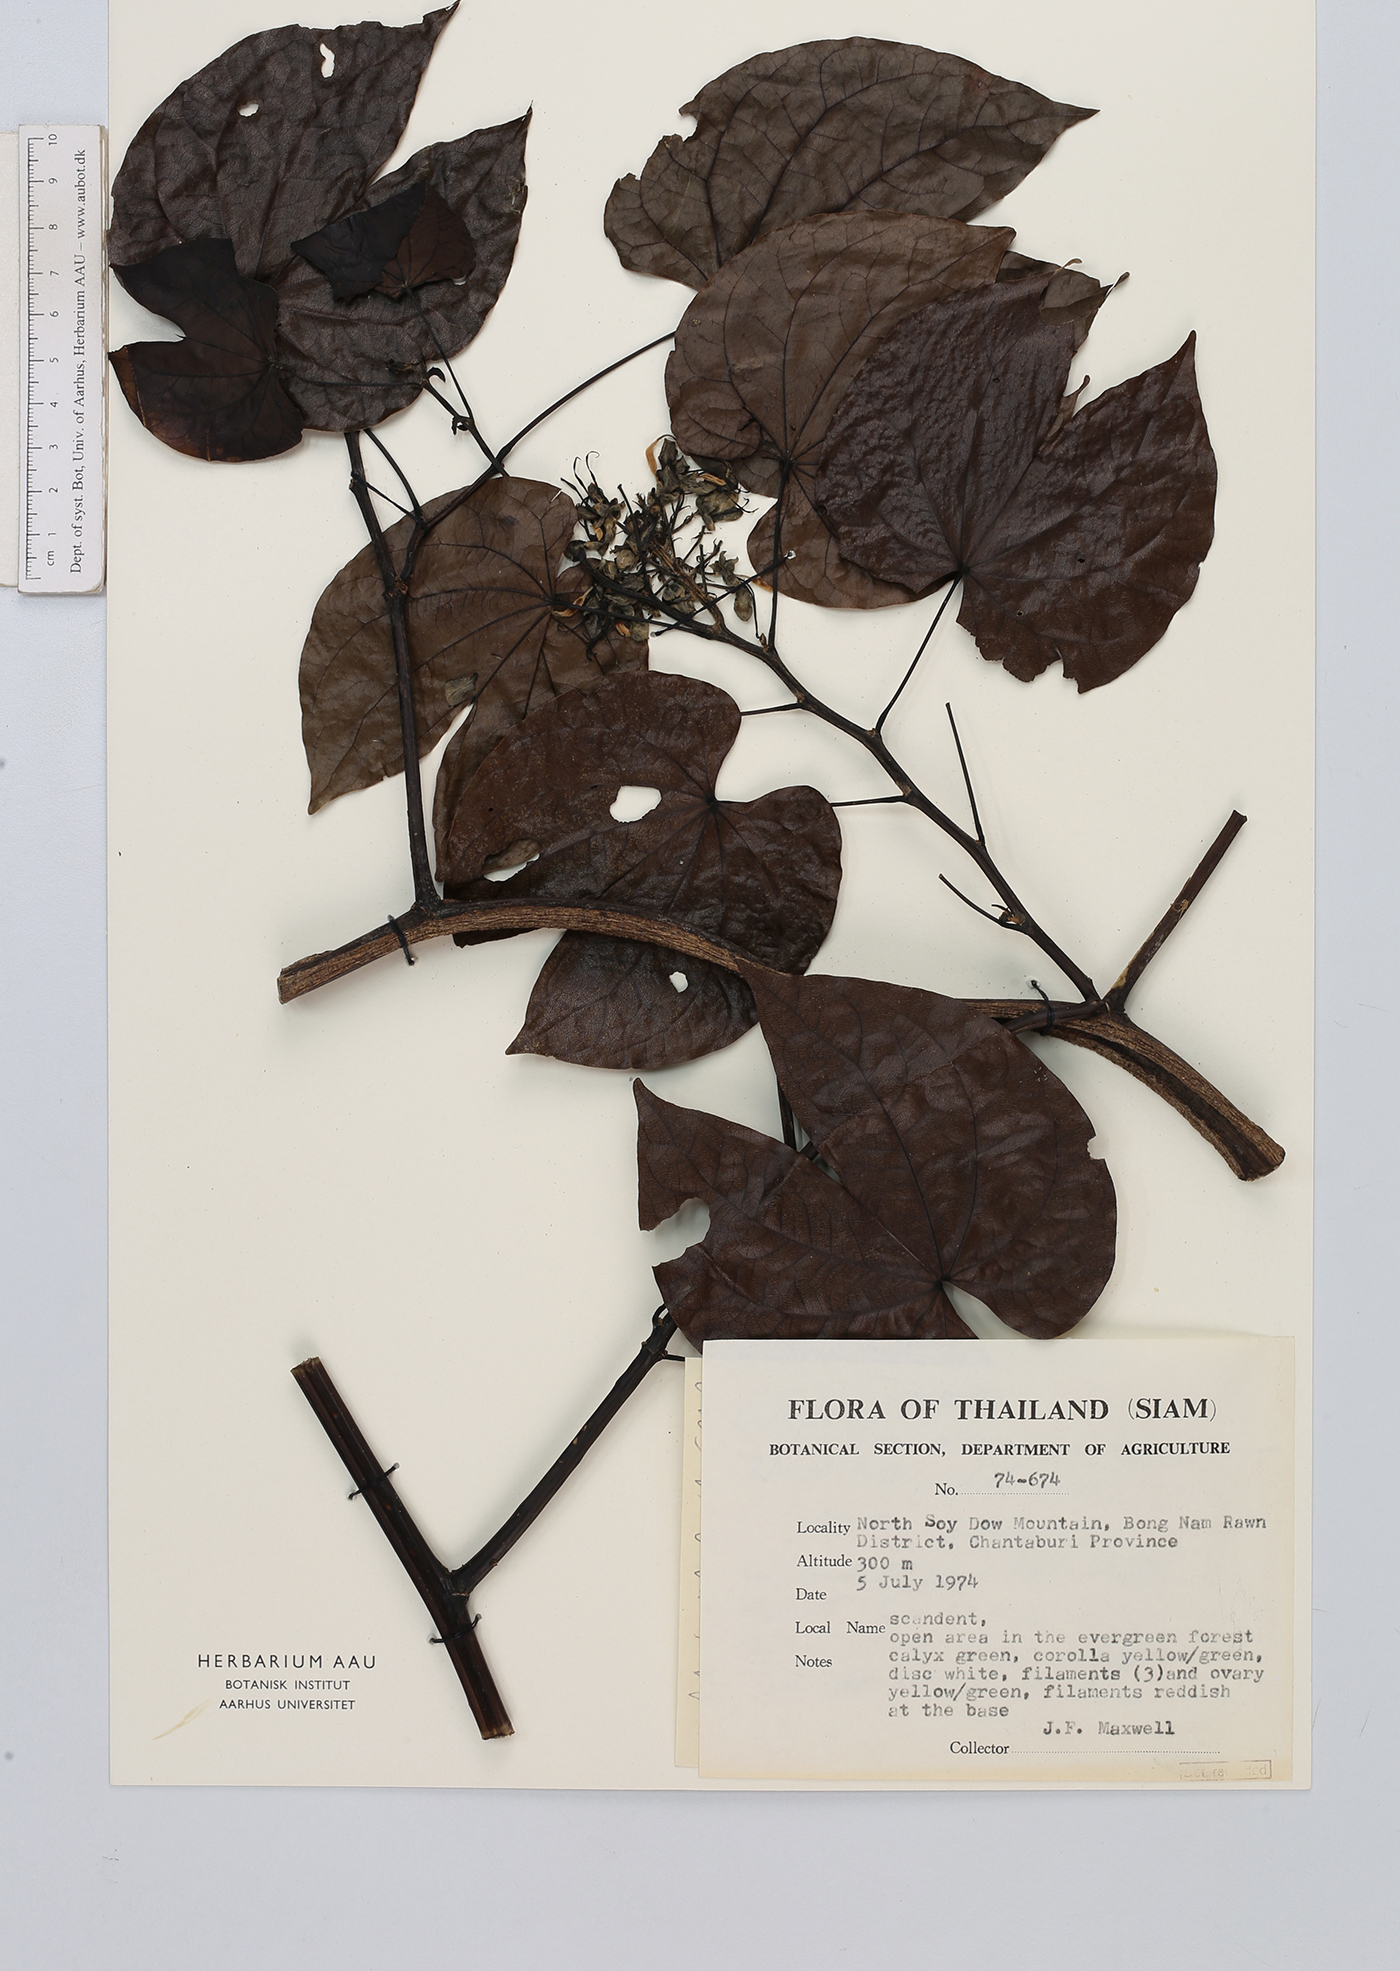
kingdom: Plantae
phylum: Tracheophyta
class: Magnoliopsida
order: Fabales
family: Fabaceae
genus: Phanera
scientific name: Phanera pulla
